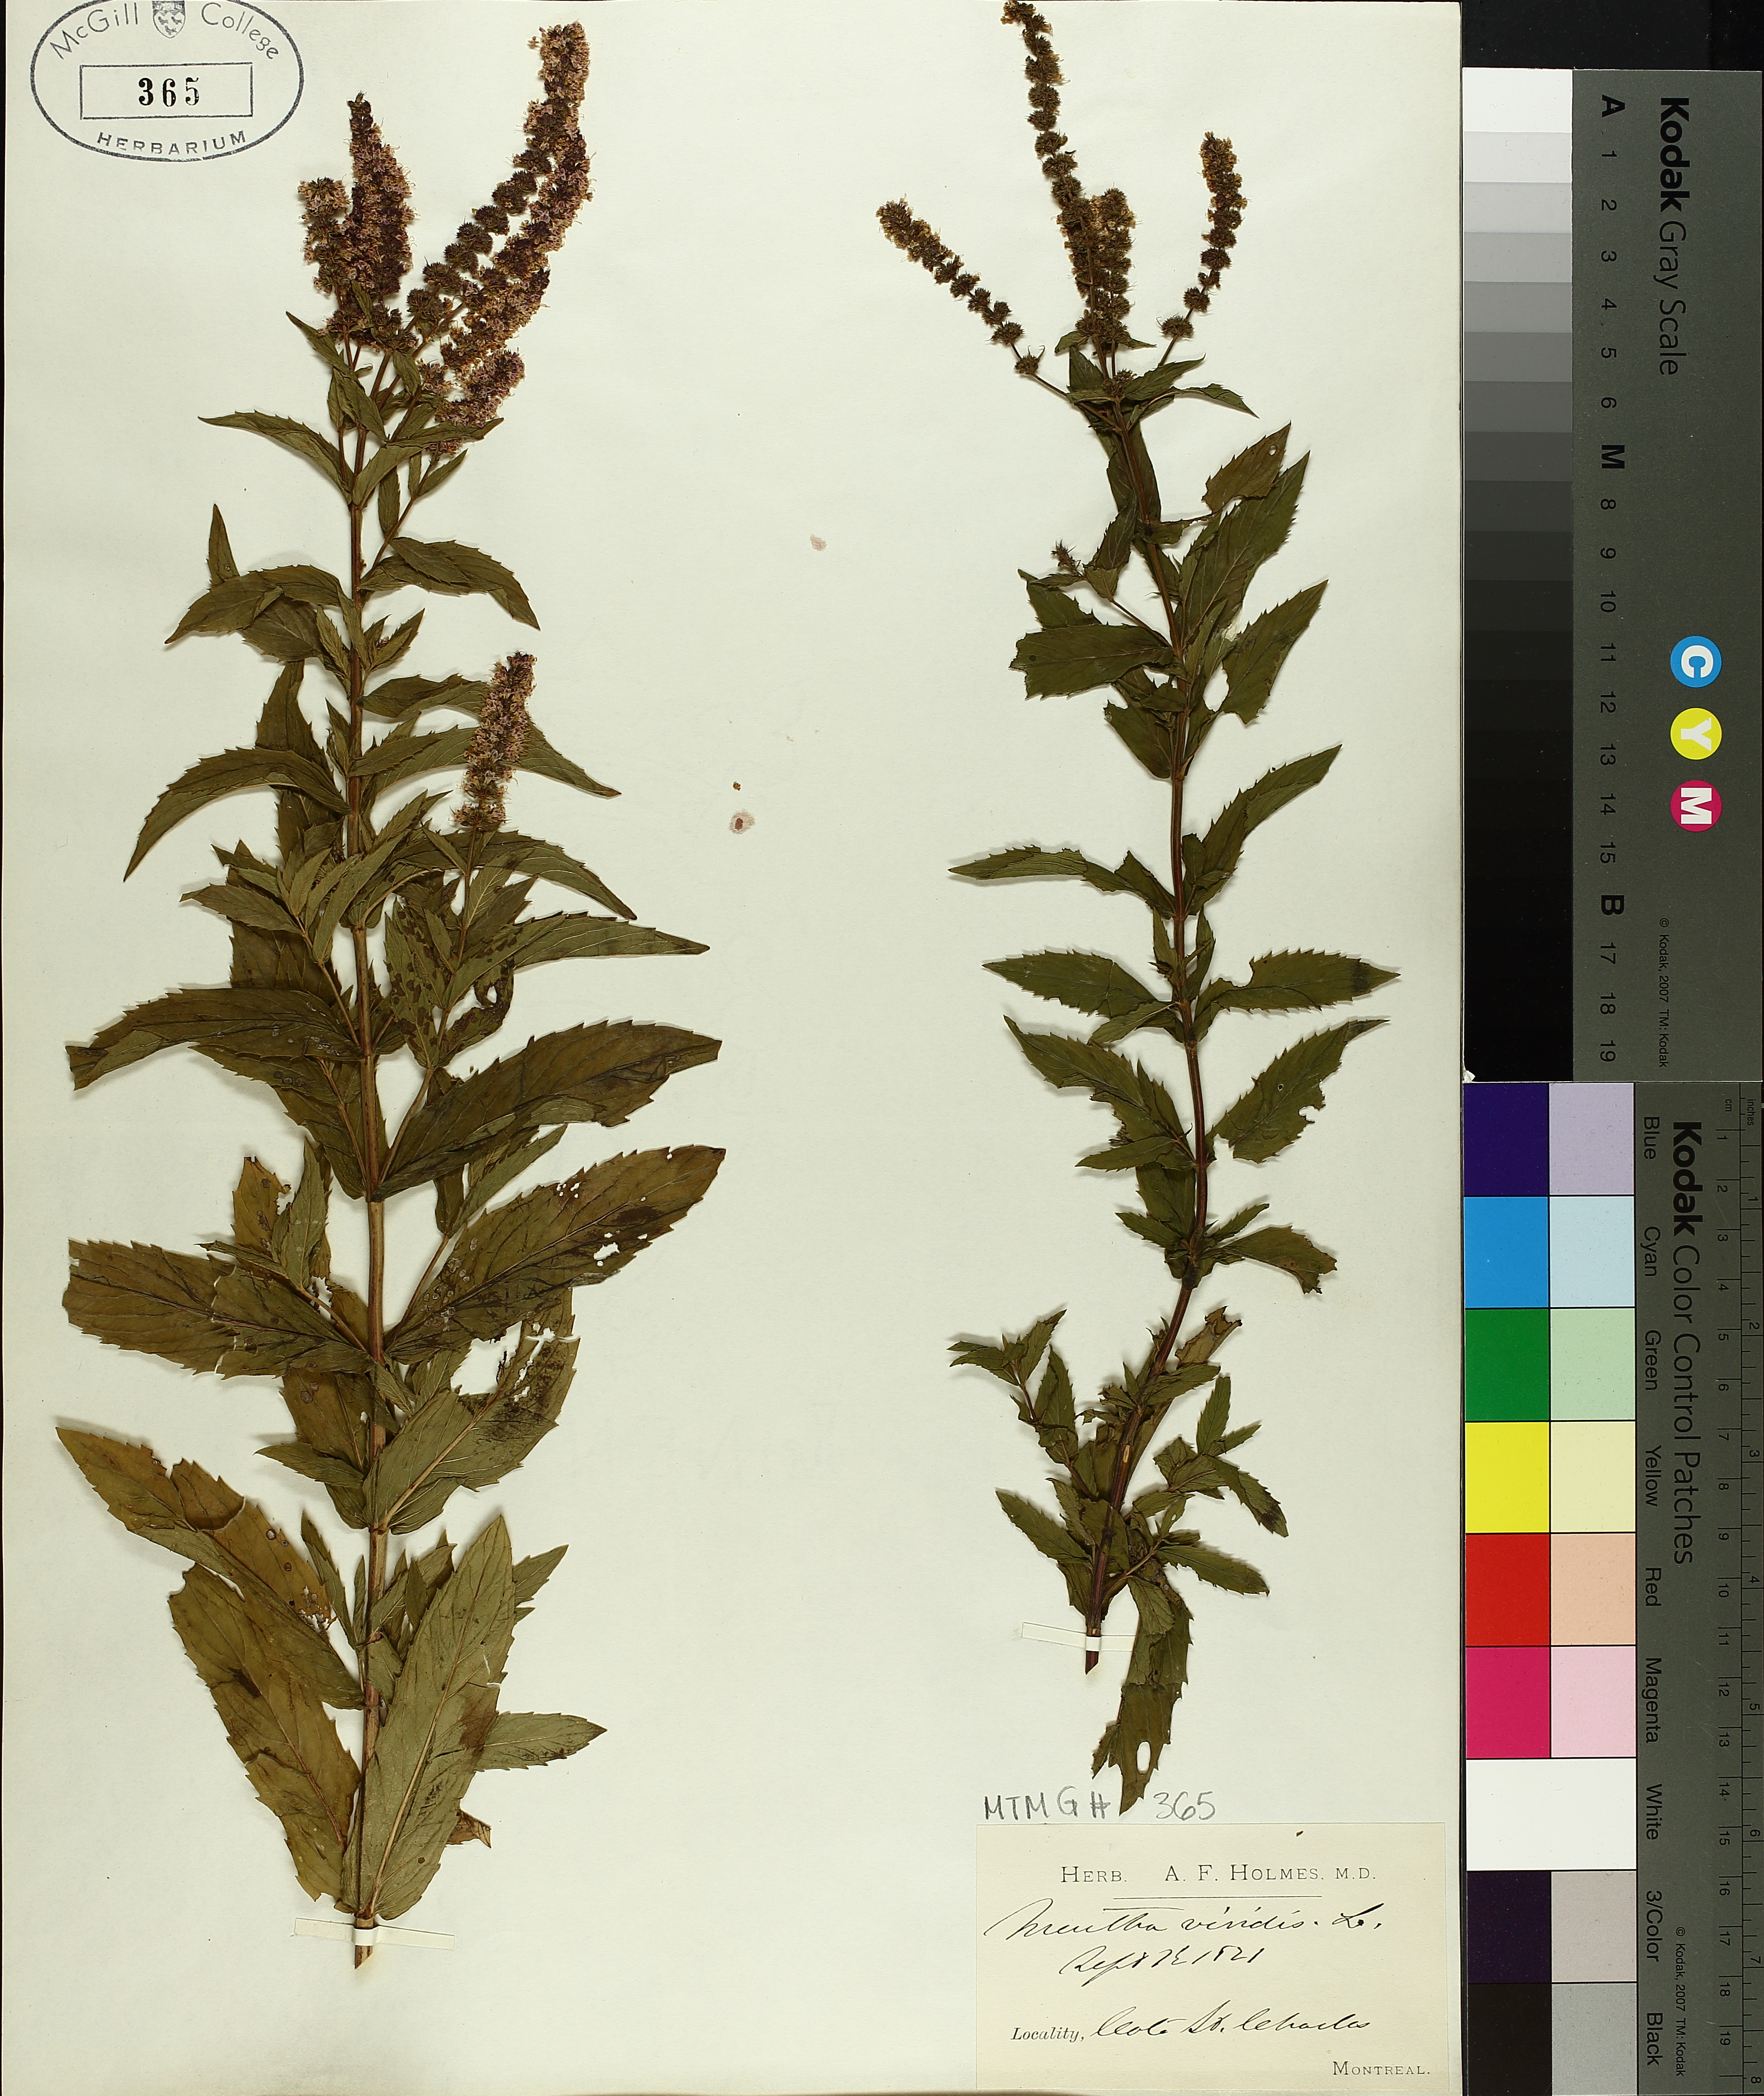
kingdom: Plantae
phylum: Tracheophyta
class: Magnoliopsida
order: Lamiales
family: Lamiaceae
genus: Mentha
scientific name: Mentha spicata
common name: Spearmint
